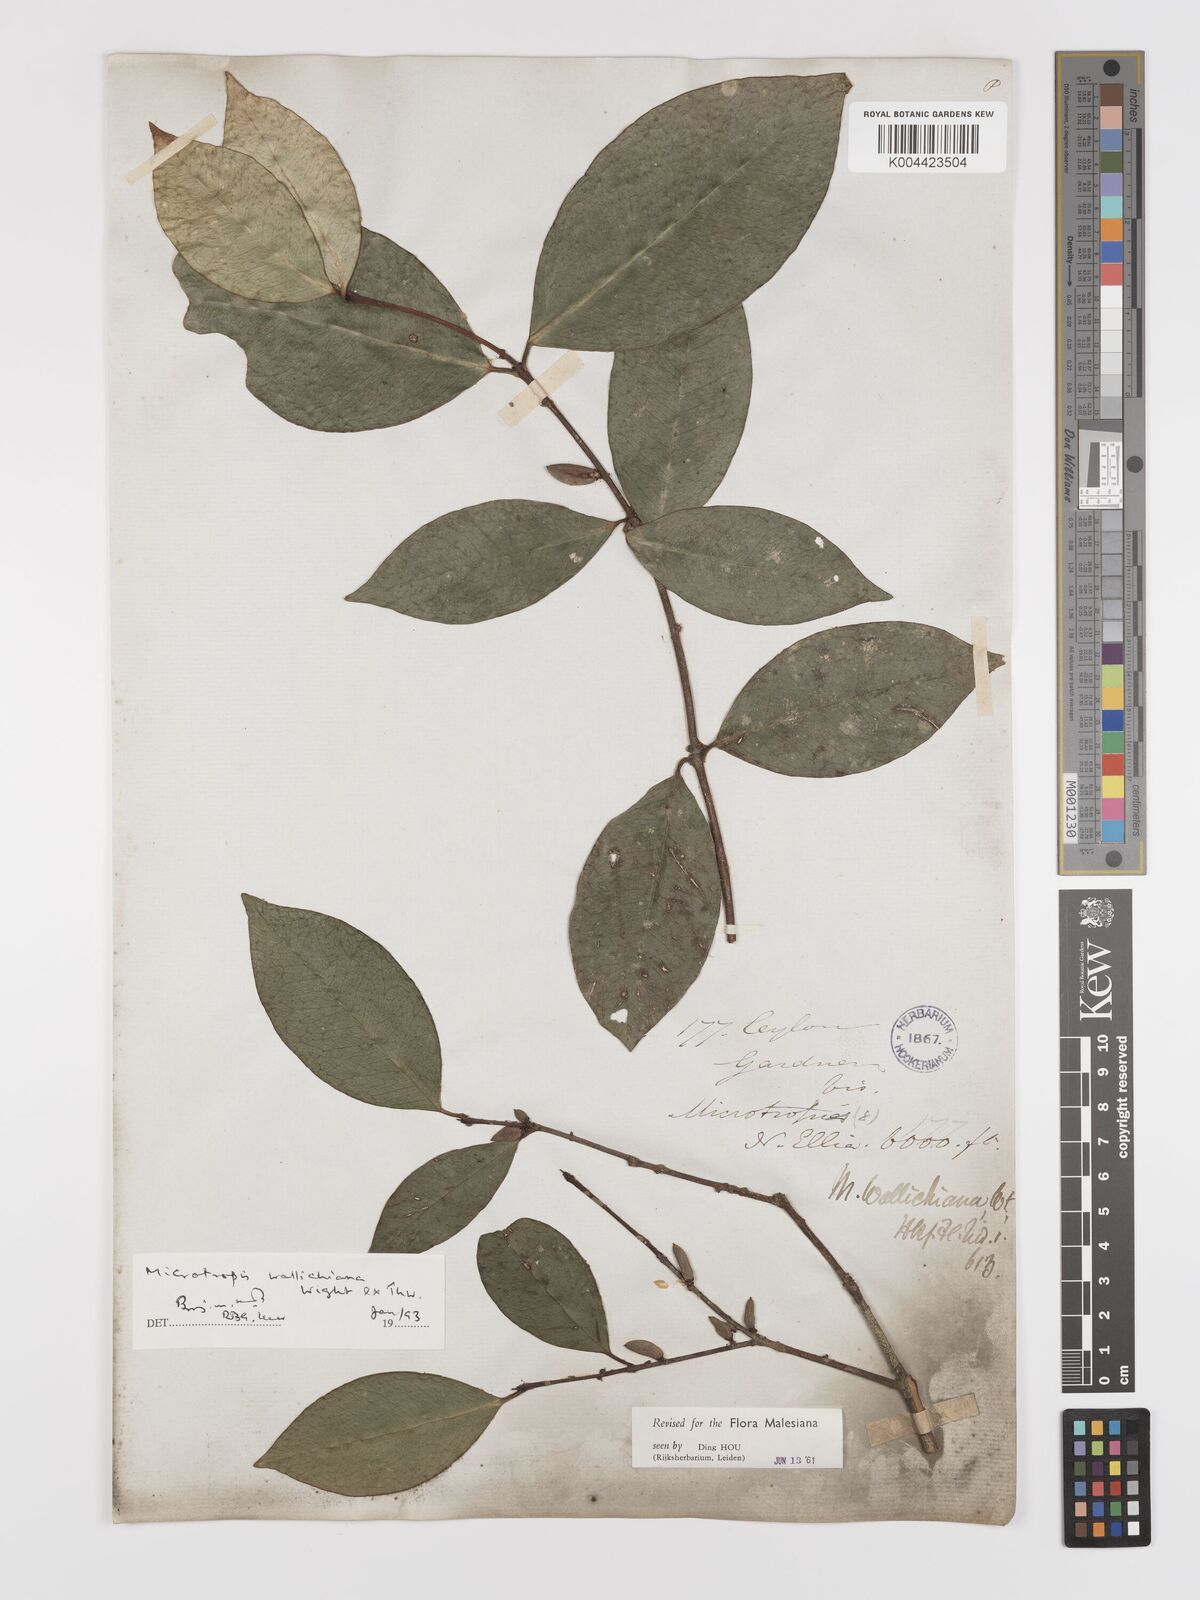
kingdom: Plantae
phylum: Tracheophyta
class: Magnoliopsida
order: Celastrales
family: Celastraceae
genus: Microtropis
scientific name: Microtropis wallichiana
